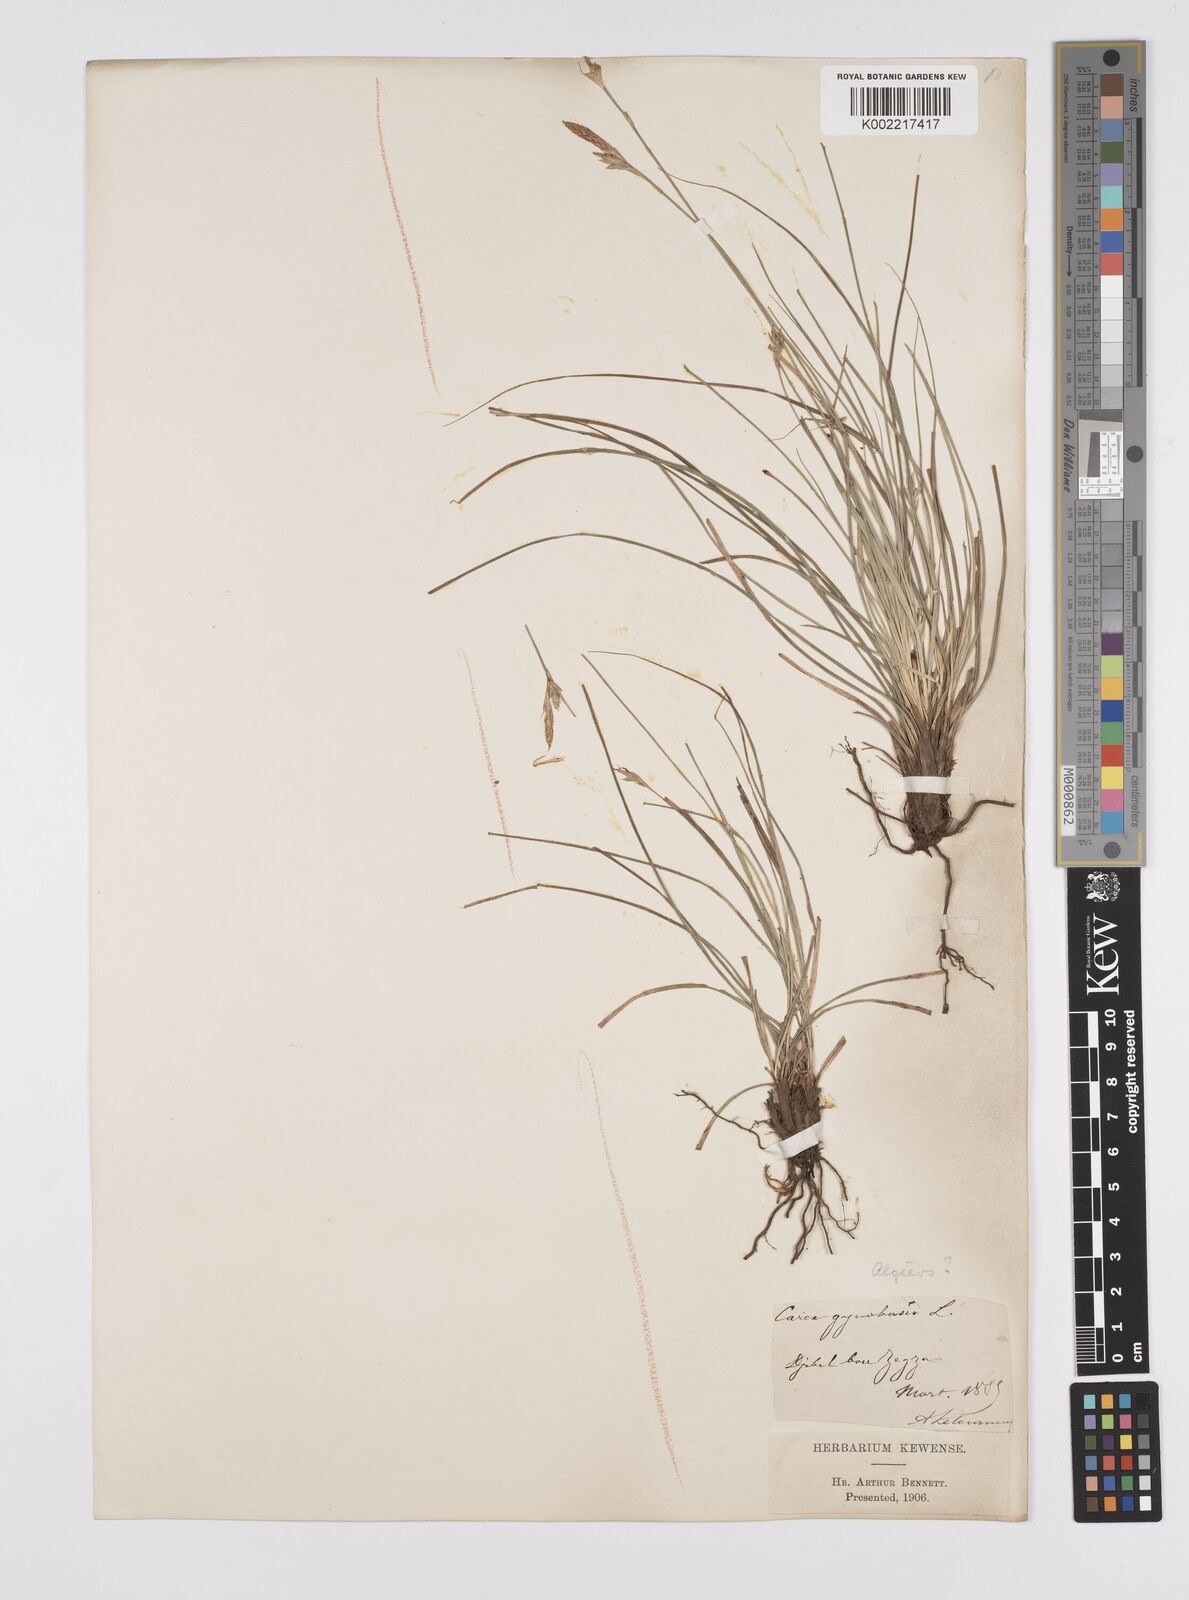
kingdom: Plantae
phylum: Tracheophyta
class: Liliopsida
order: Poales
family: Cyperaceae
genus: Carex
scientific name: Carex halleriana
